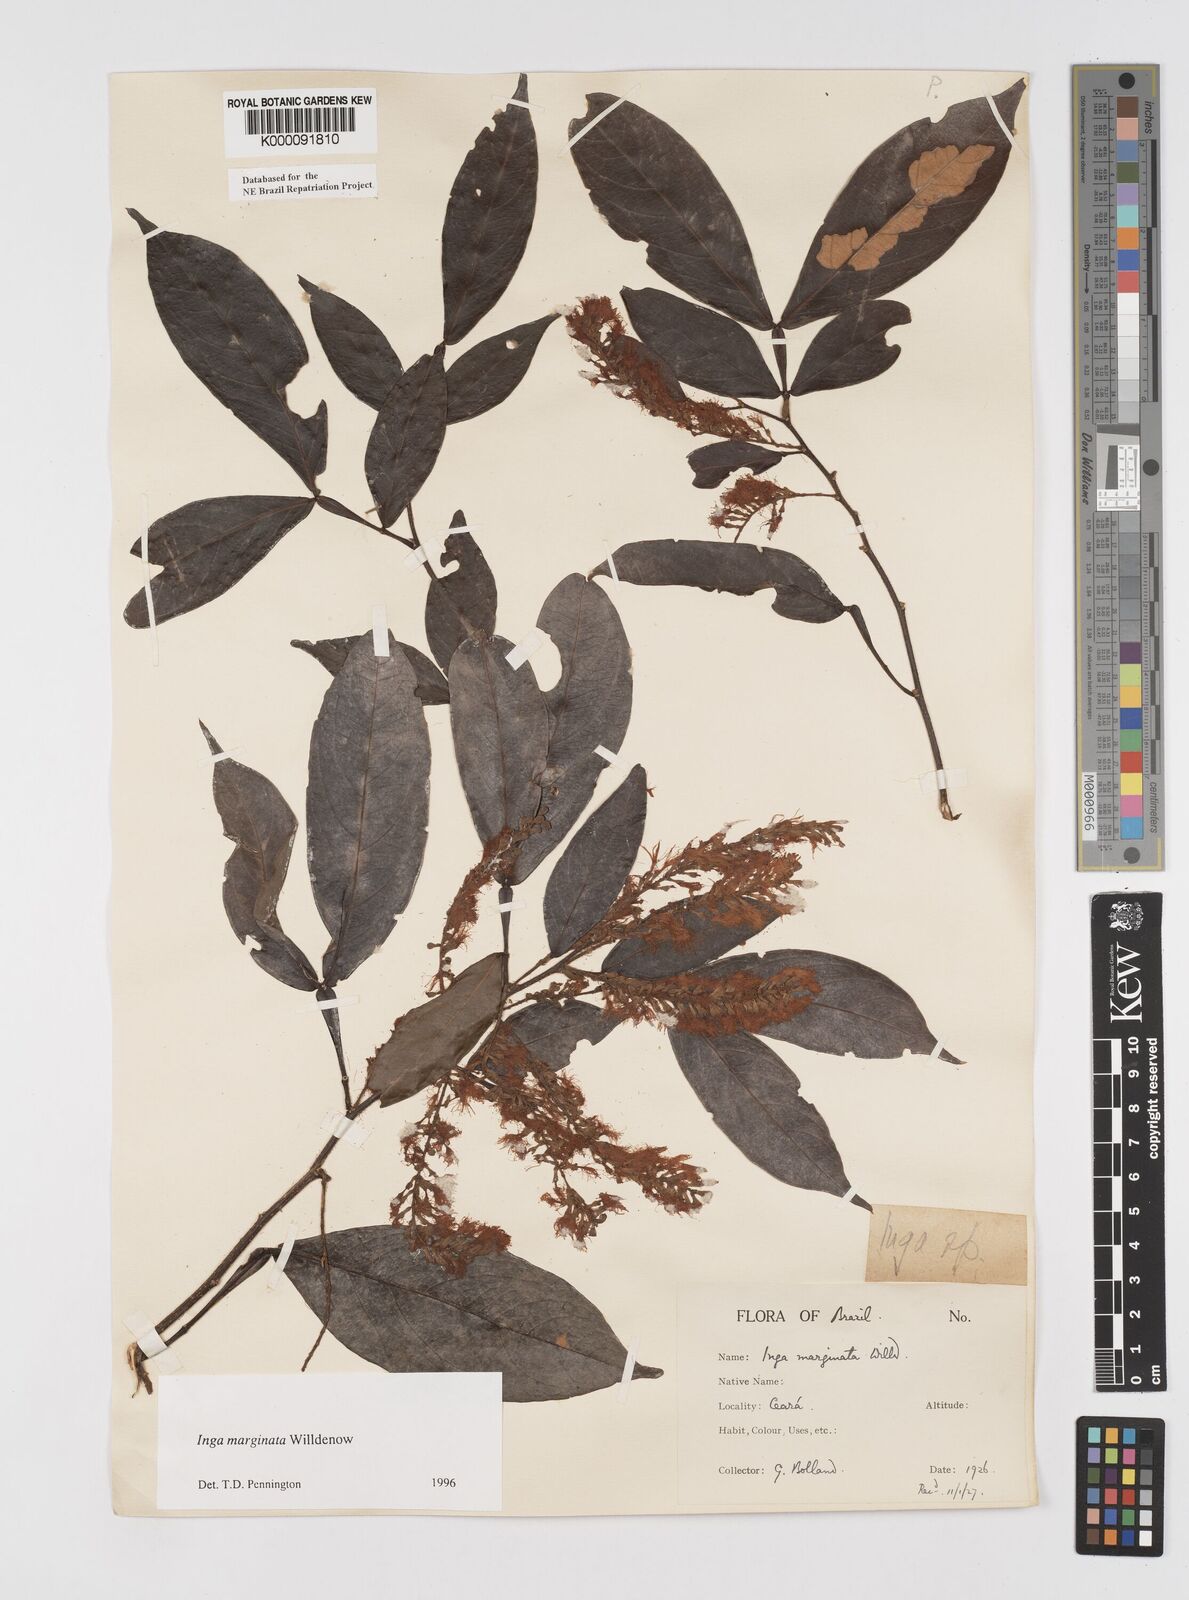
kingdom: Plantae
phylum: Tracheophyta
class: Magnoliopsida
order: Fabales
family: Fabaceae
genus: Inga
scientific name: Inga marginata
